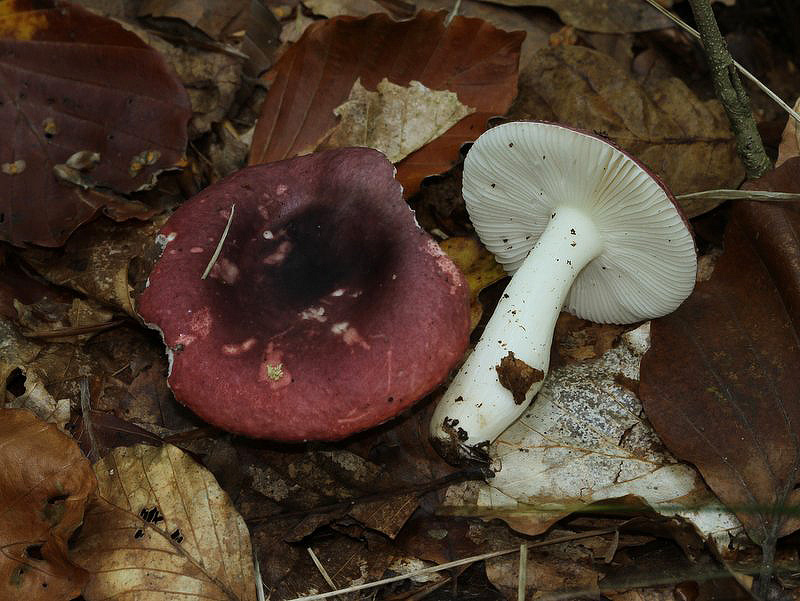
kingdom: Fungi
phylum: Basidiomycota
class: Agaricomycetes
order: Russulales
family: Russulaceae
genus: Russula
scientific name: Russula atropurpurea
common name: purpurbroget skørhat
